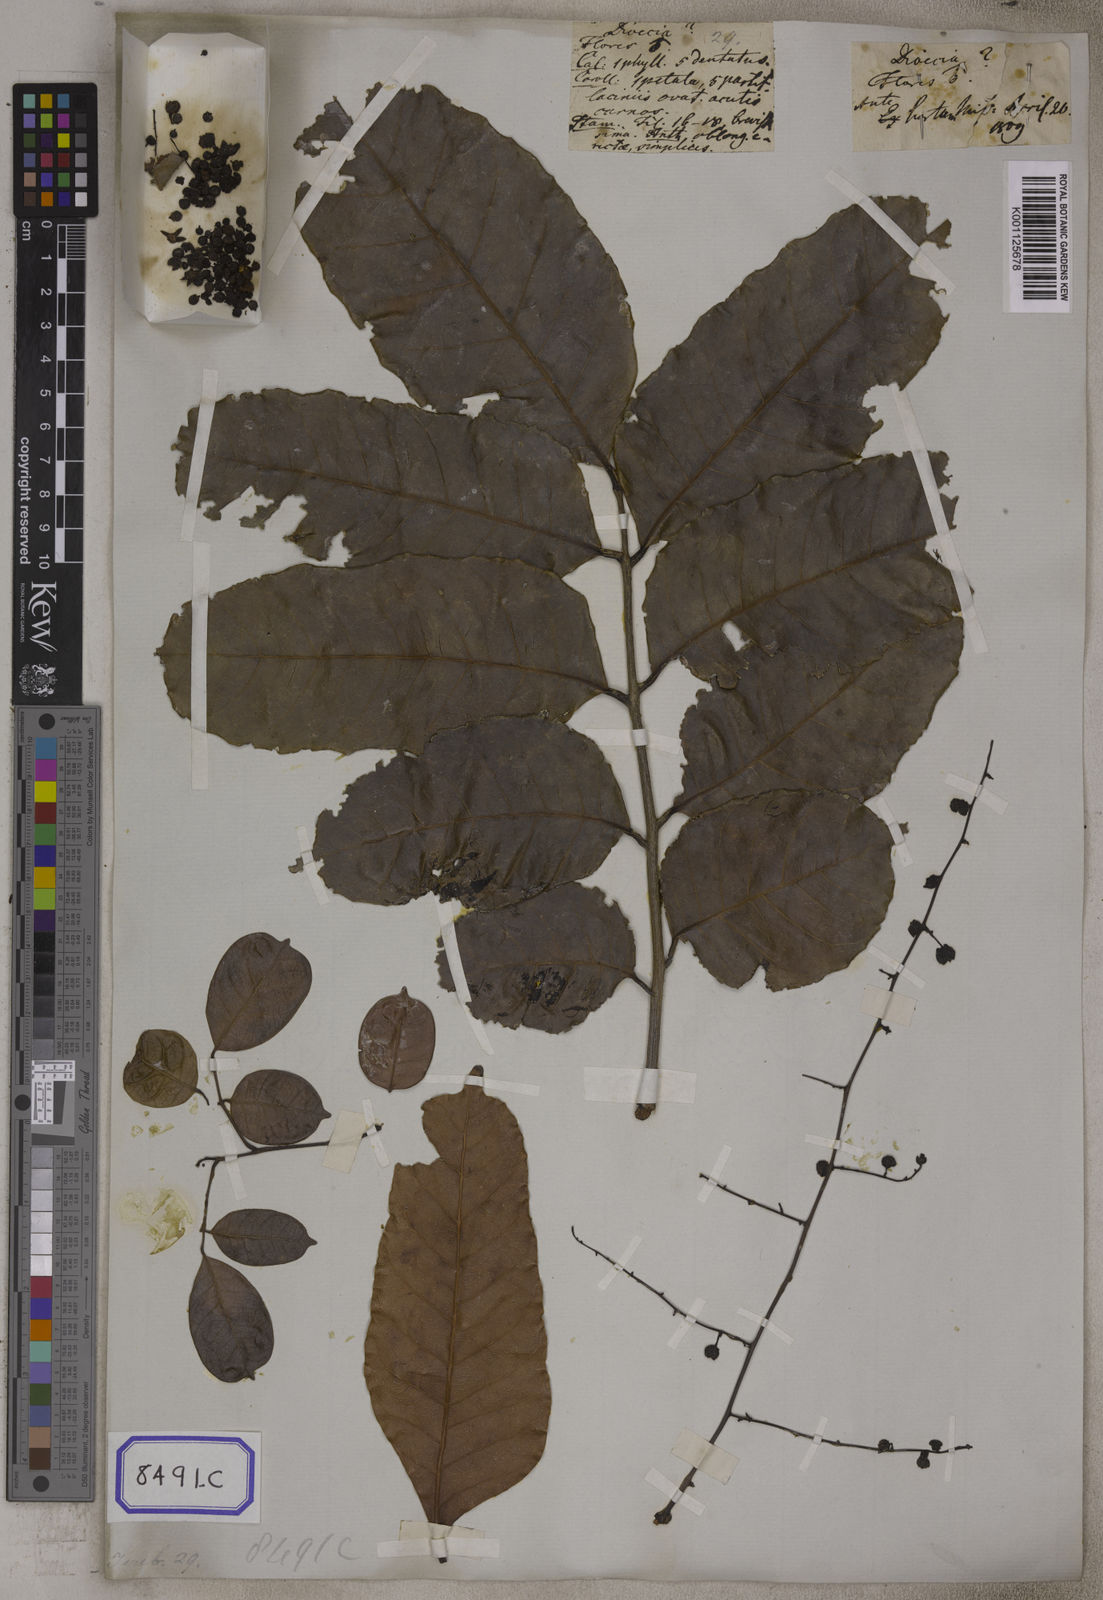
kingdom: Plantae
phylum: Tracheophyta
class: Magnoliopsida
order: Sapindales
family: Anacardiaceae
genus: Sorindeia
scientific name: Sorindeia madagascariensis
